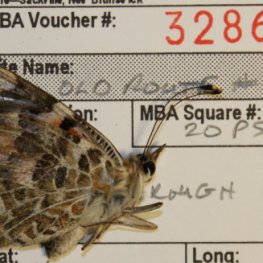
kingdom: Animalia
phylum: Arthropoda
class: Insecta
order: Lepidoptera
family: Nymphalidae
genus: Vanessa
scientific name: Vanessa cardui
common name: Painted Lady
